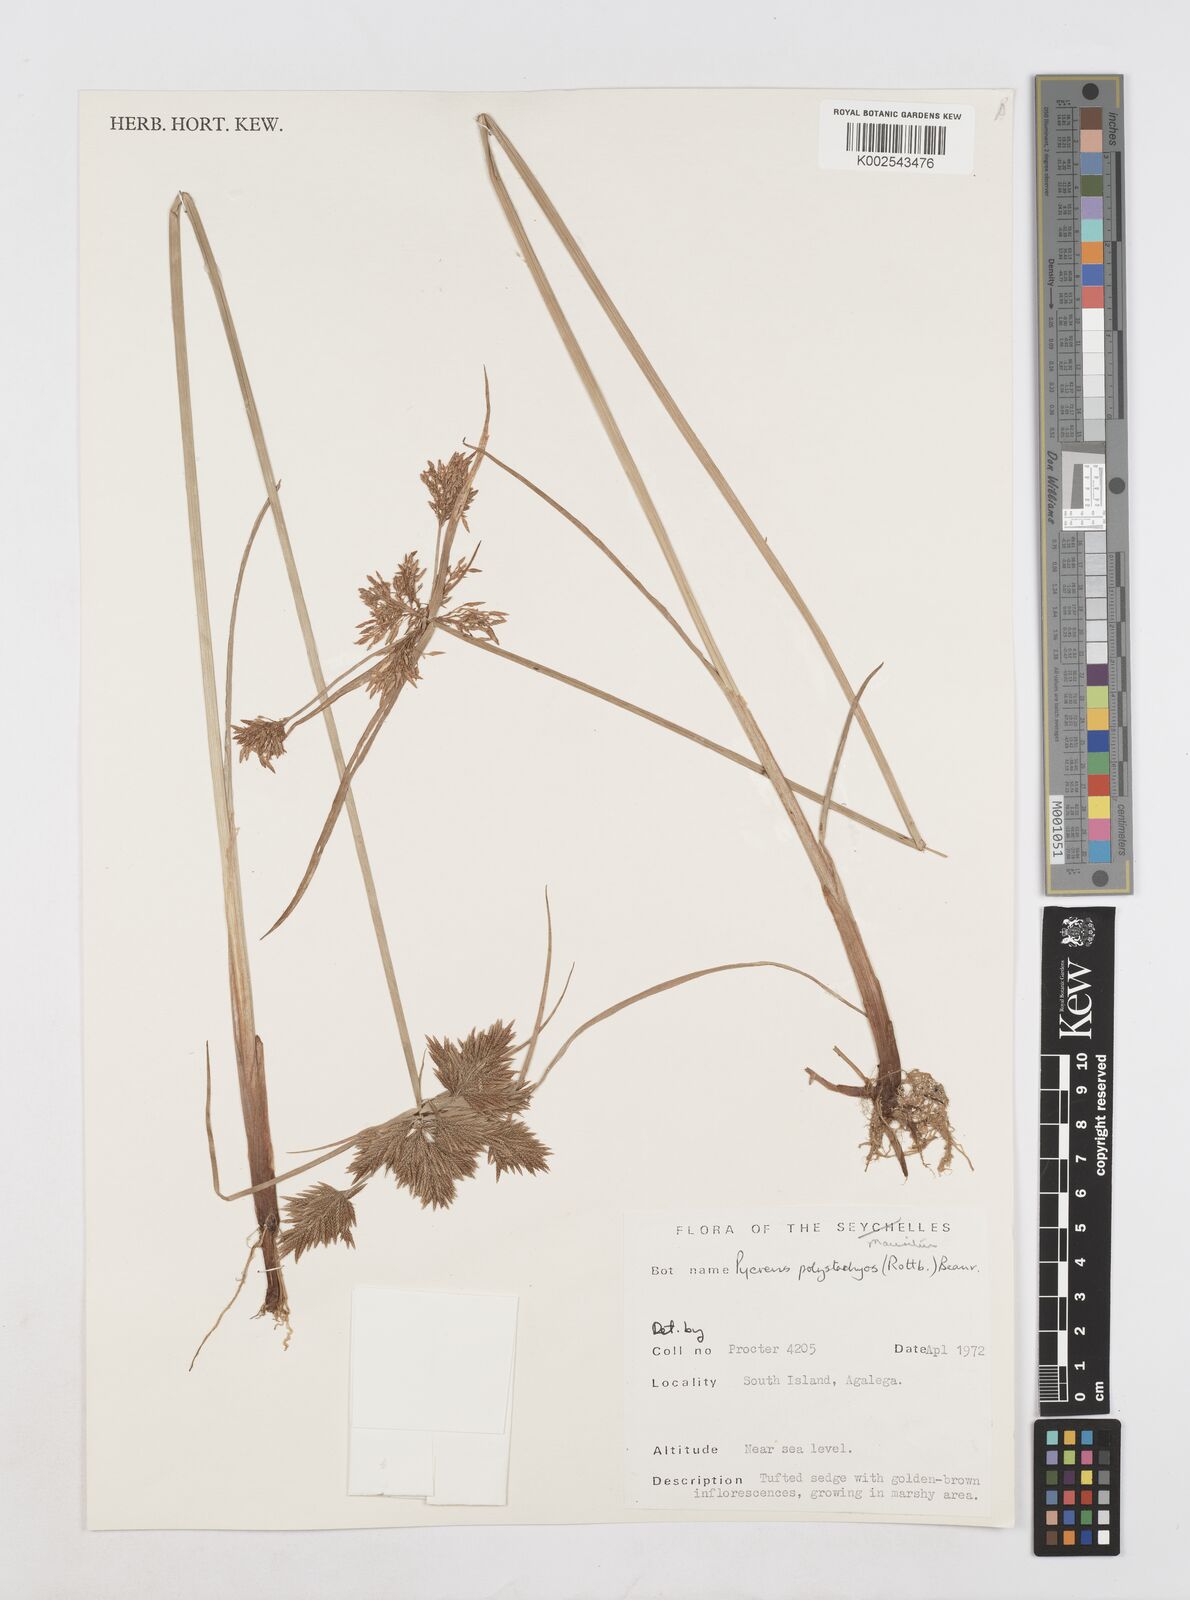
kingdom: Plantae
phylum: Tracheophyta
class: Liliopsida
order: Poales
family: Cyperaceae
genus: Cyperus
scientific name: Cyperus polystachyos
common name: Bunchy flat sedge
